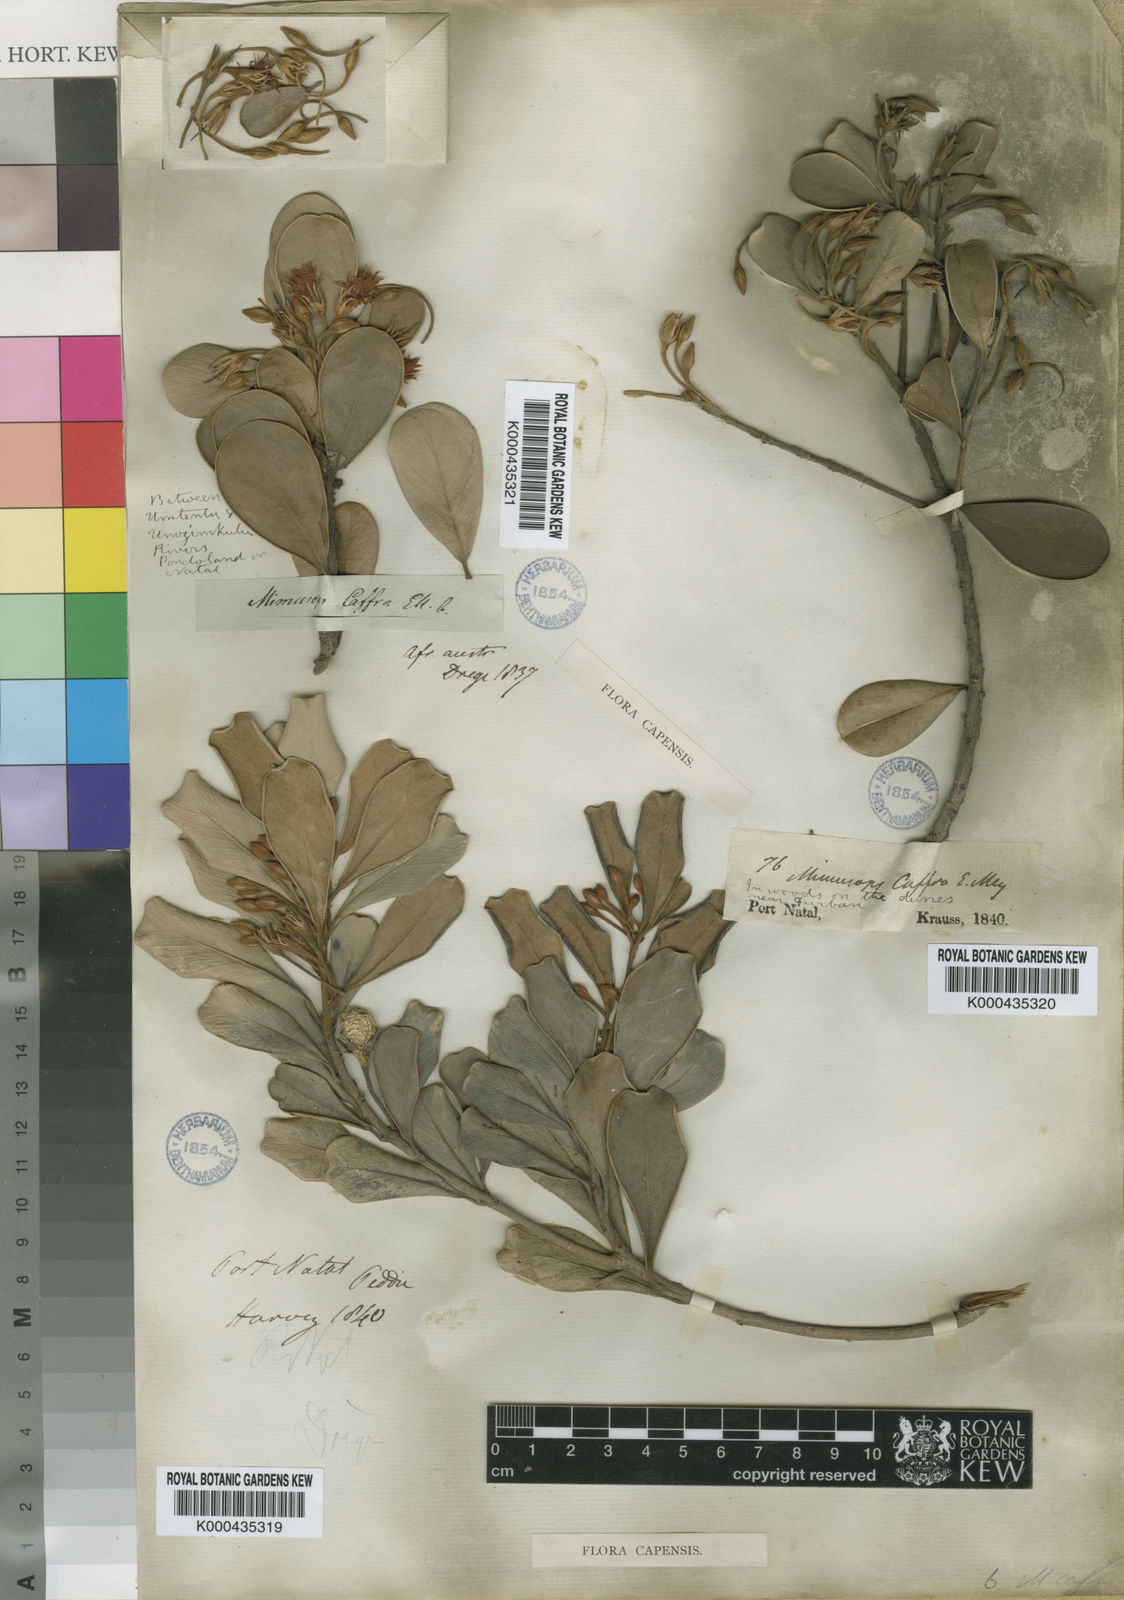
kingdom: Plantae
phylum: Tracheophyta
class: Magnoliopsida
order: Ericales
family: Sapotaceae
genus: Mimusops
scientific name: Mimusops caffra
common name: Coastal red milkwood
